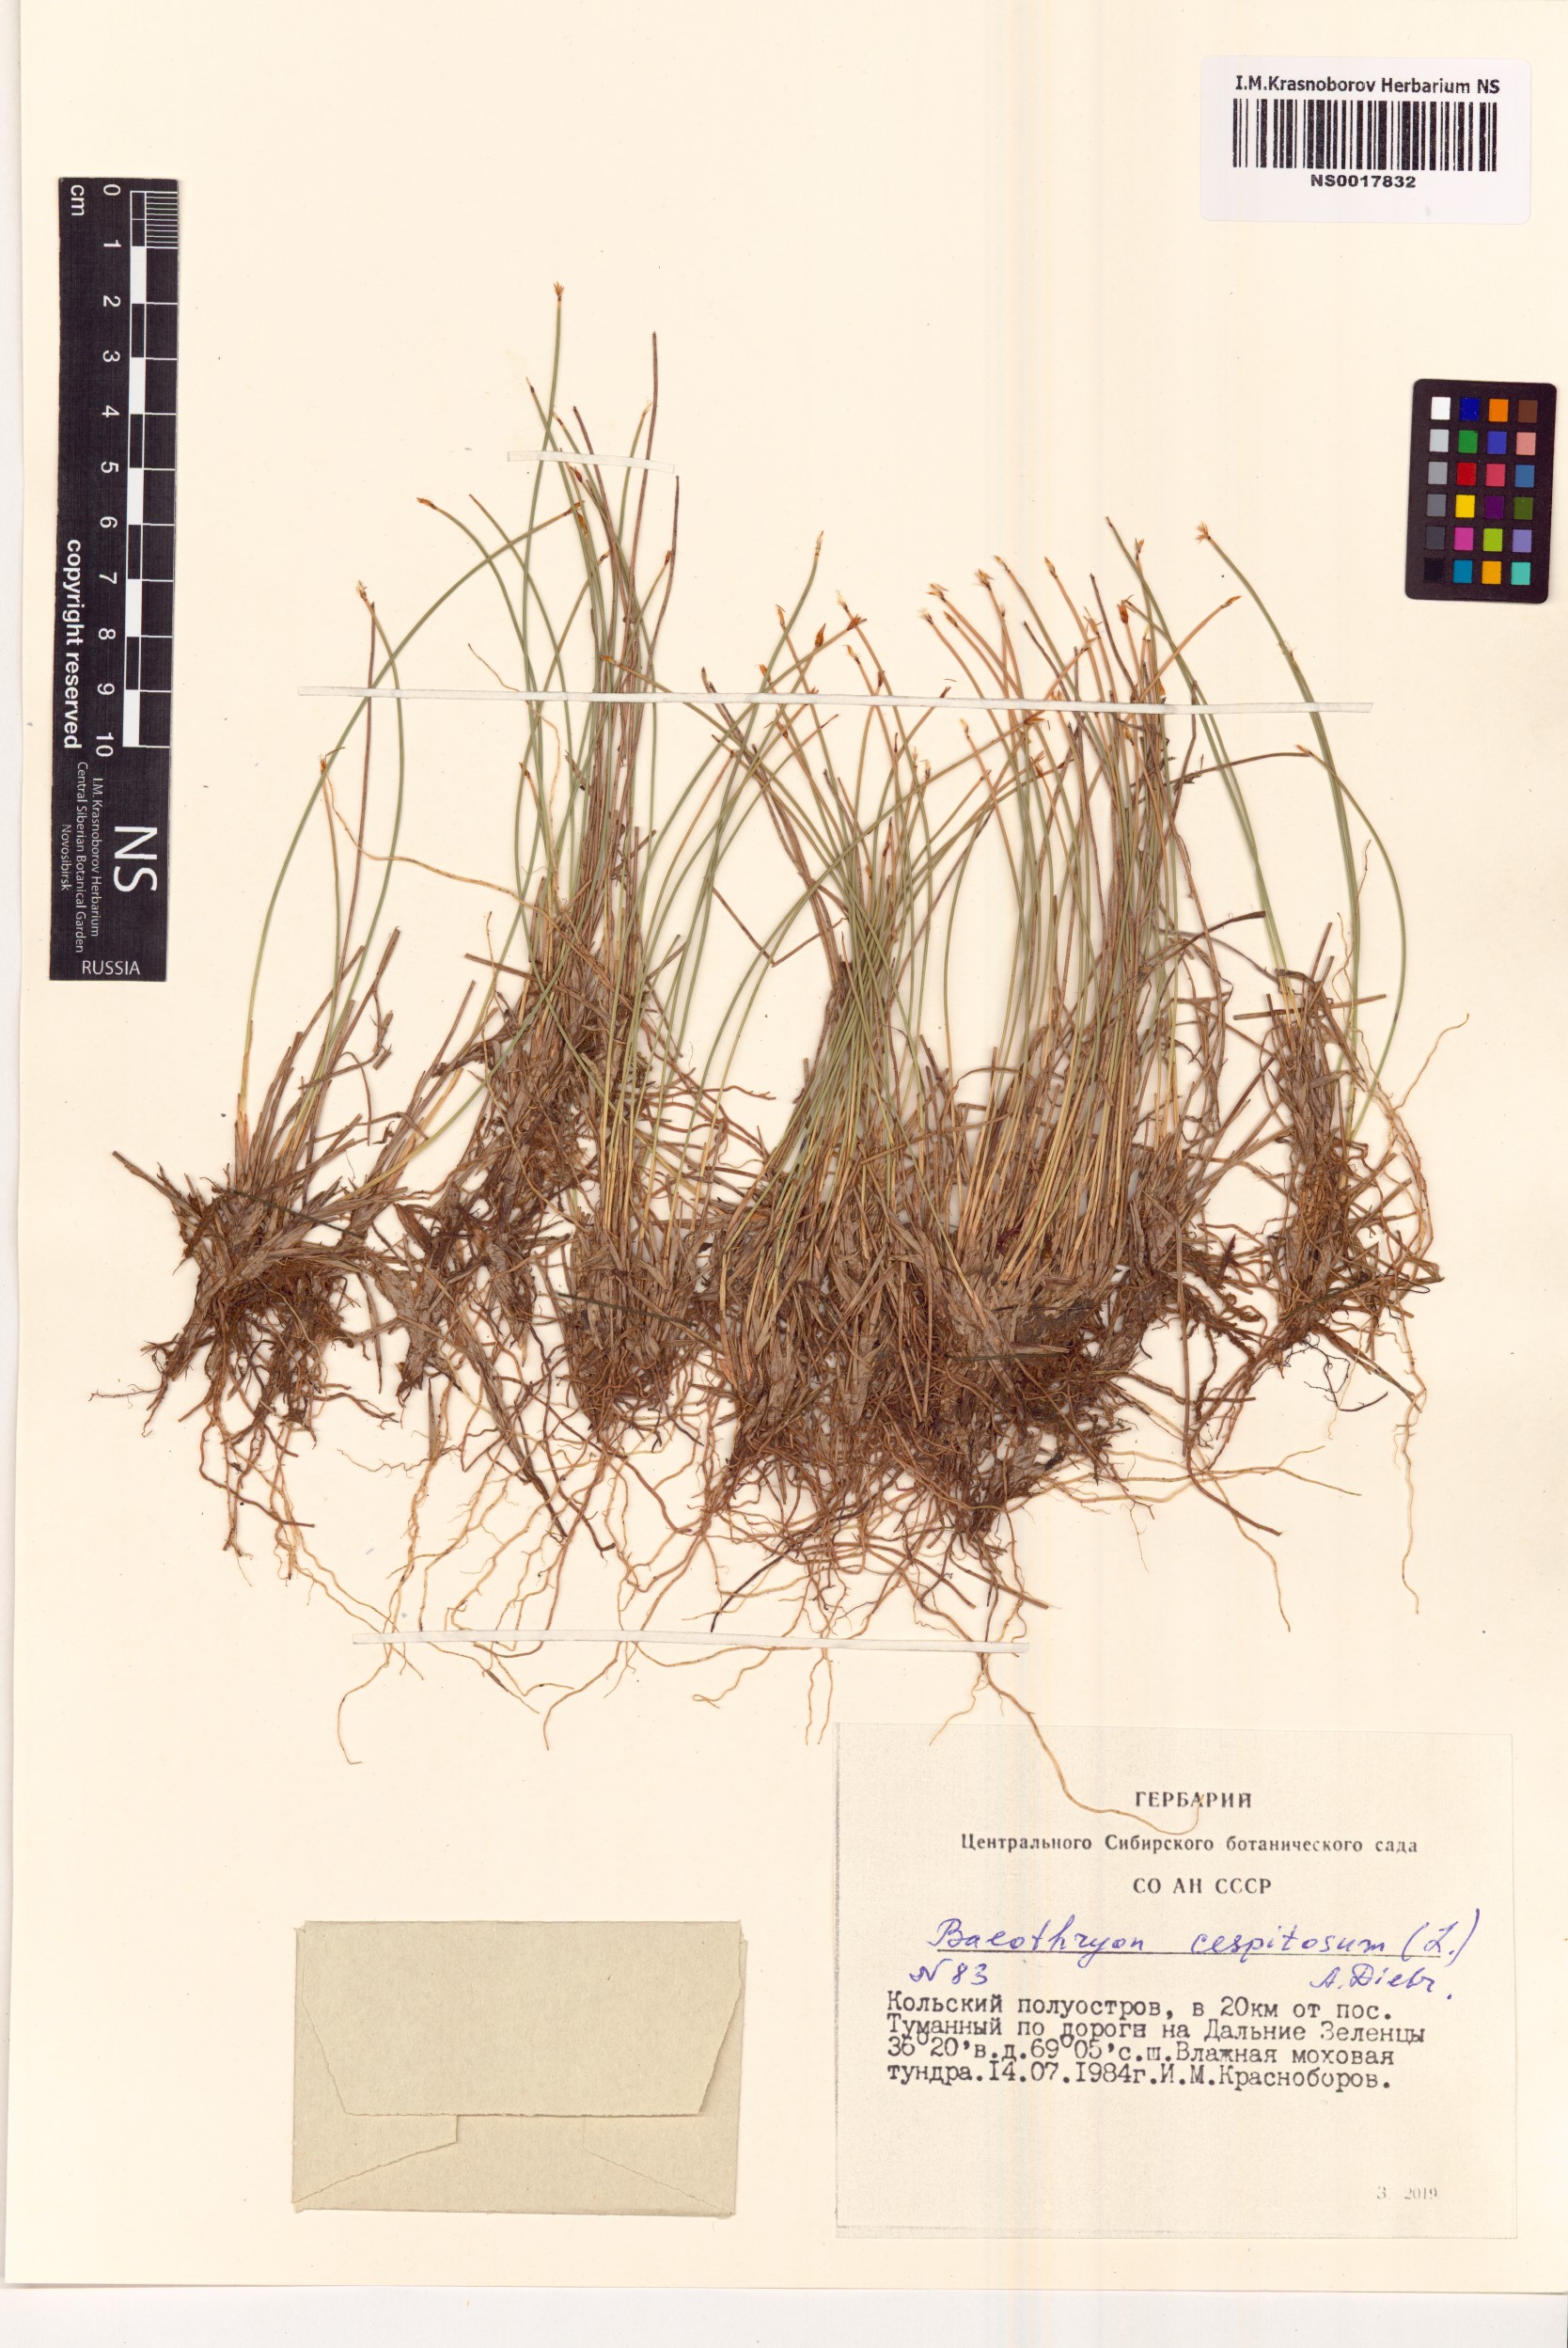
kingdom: Plantae
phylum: Tracheophyta
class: Liliopsida
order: Poales
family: Cyperaceae
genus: Trichophorum
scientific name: Trichophorum cespitosum
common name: Cespitose bulrush
